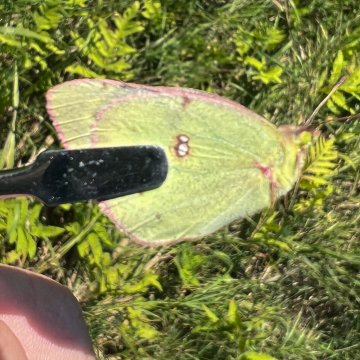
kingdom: Animalia
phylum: Arthropoda
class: Insecta
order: Lepidoptera
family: Pieridae
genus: Colias
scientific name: Colias philodice
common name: Clouded Sulphur
